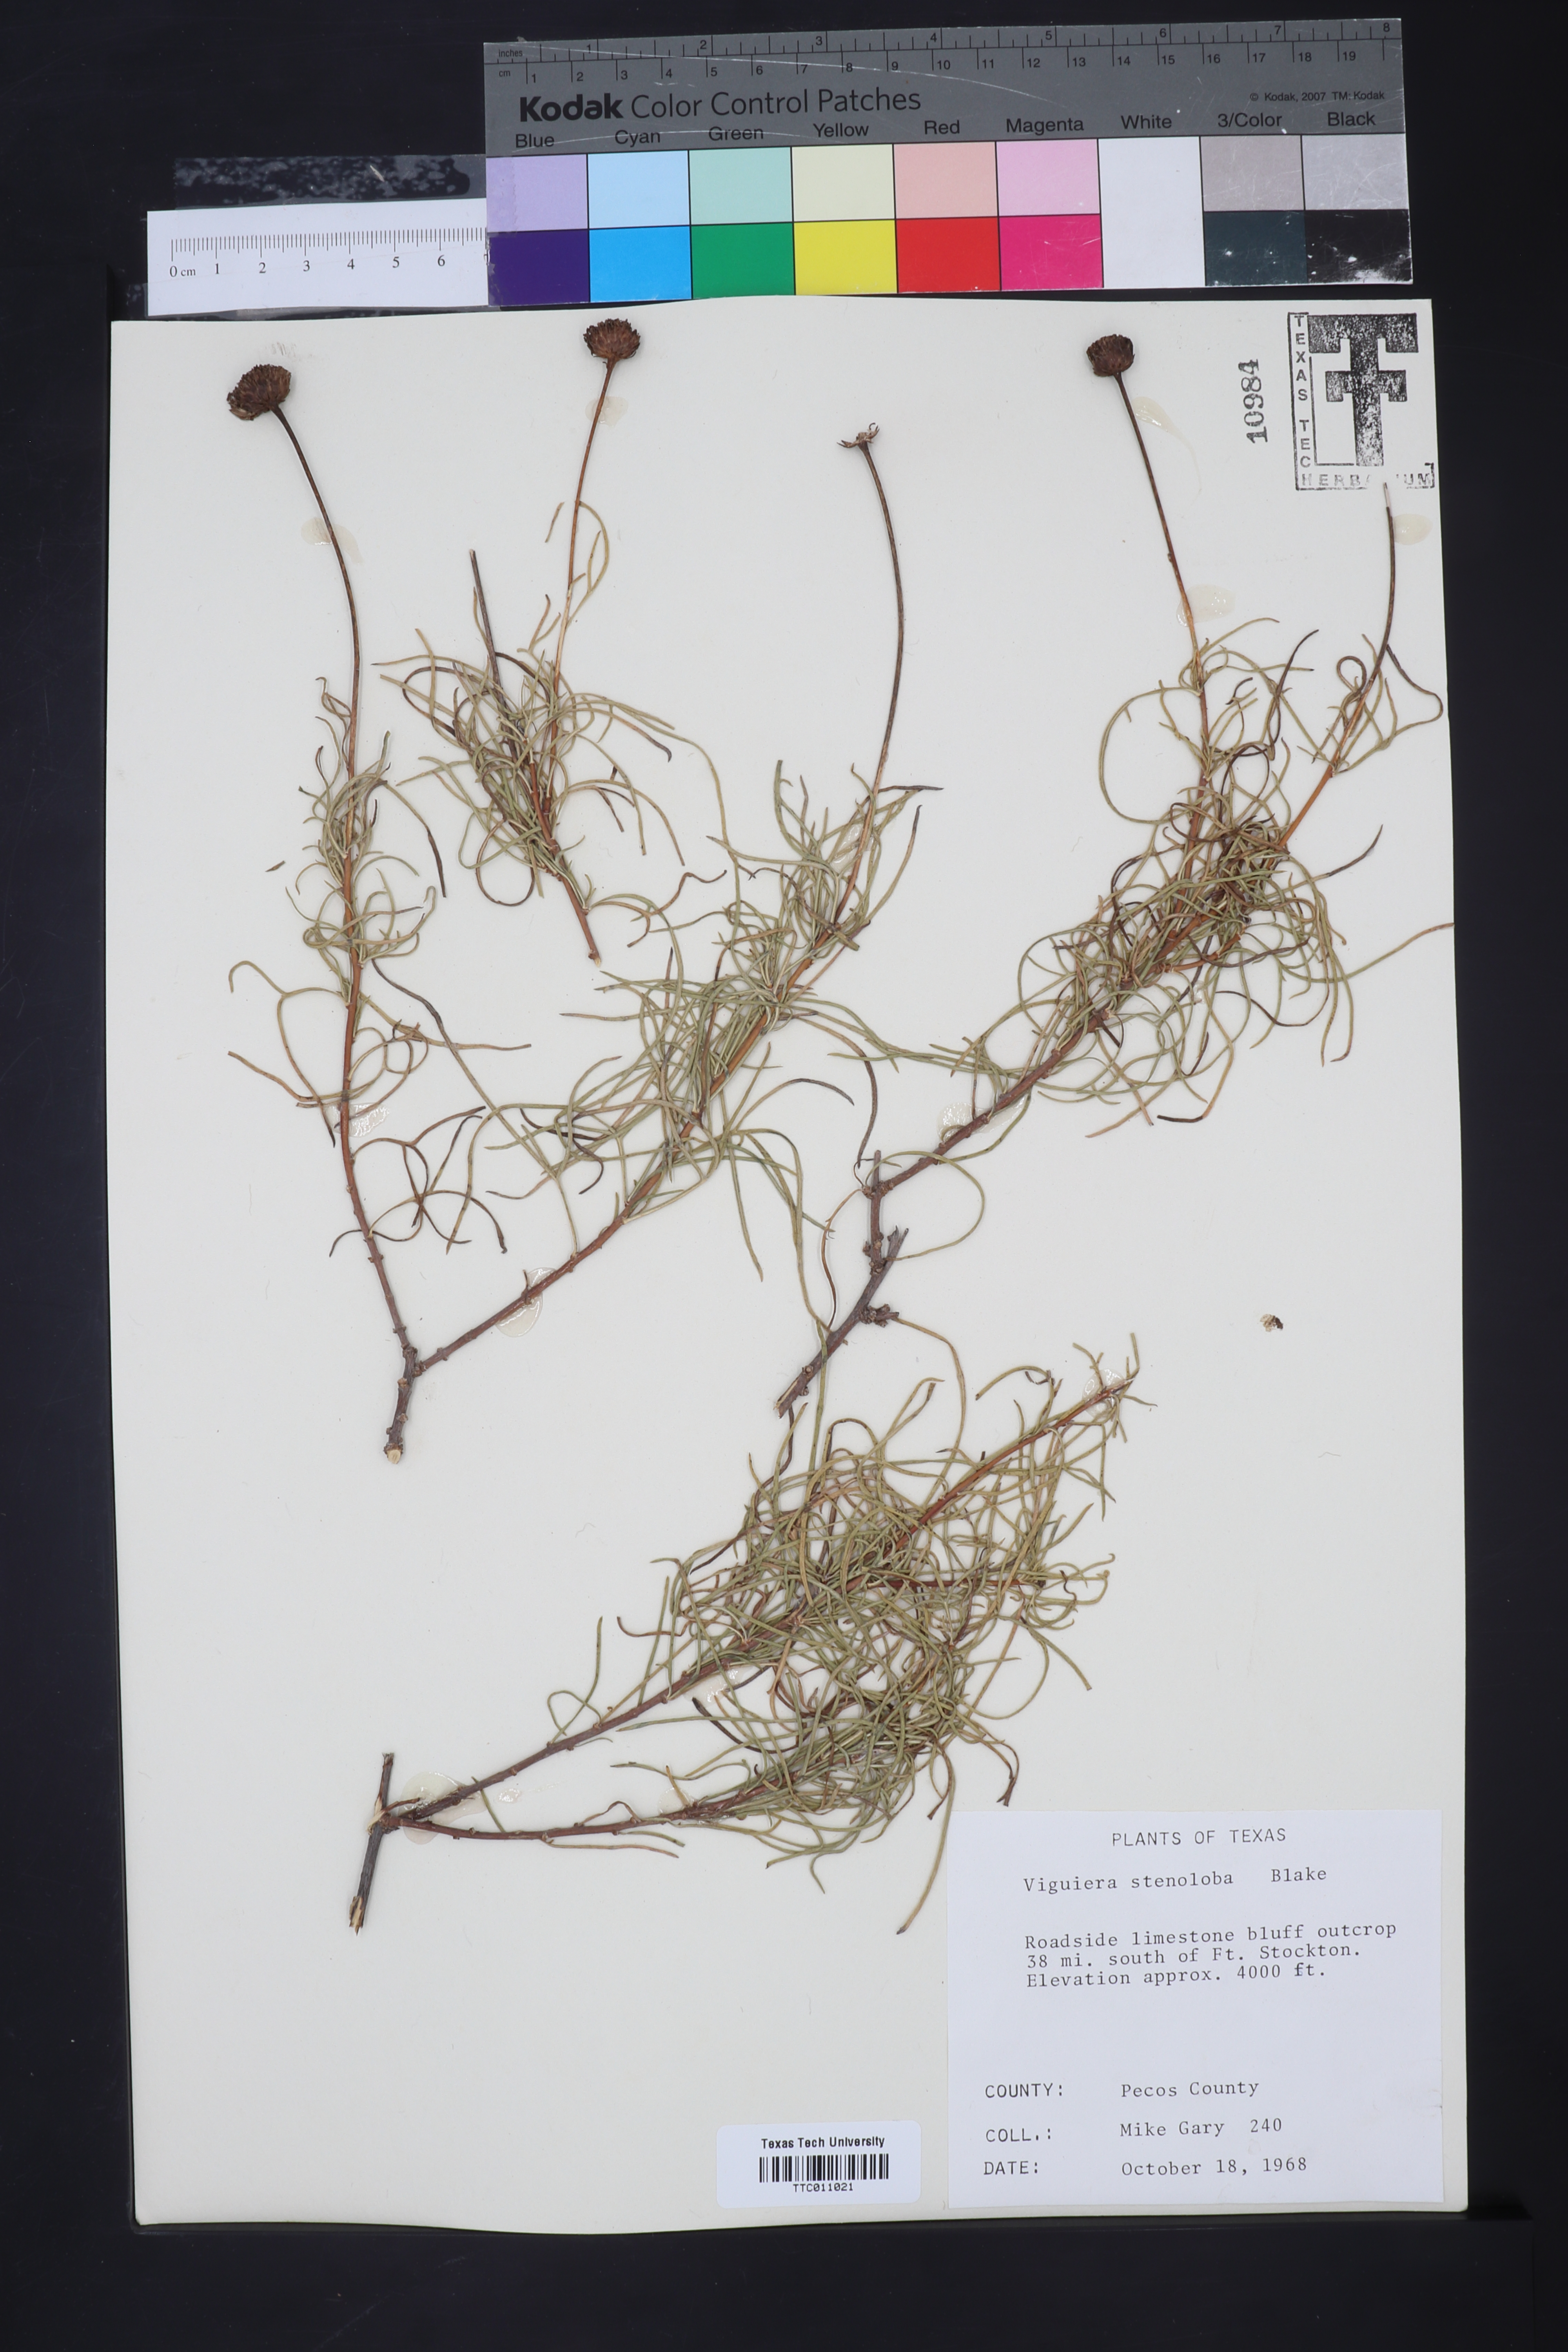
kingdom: Plantae
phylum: Tracheophyta
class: Magnoliopsida
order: Asterales
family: Asteraceae
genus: Sidneya
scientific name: Sidneya tenuifolia
